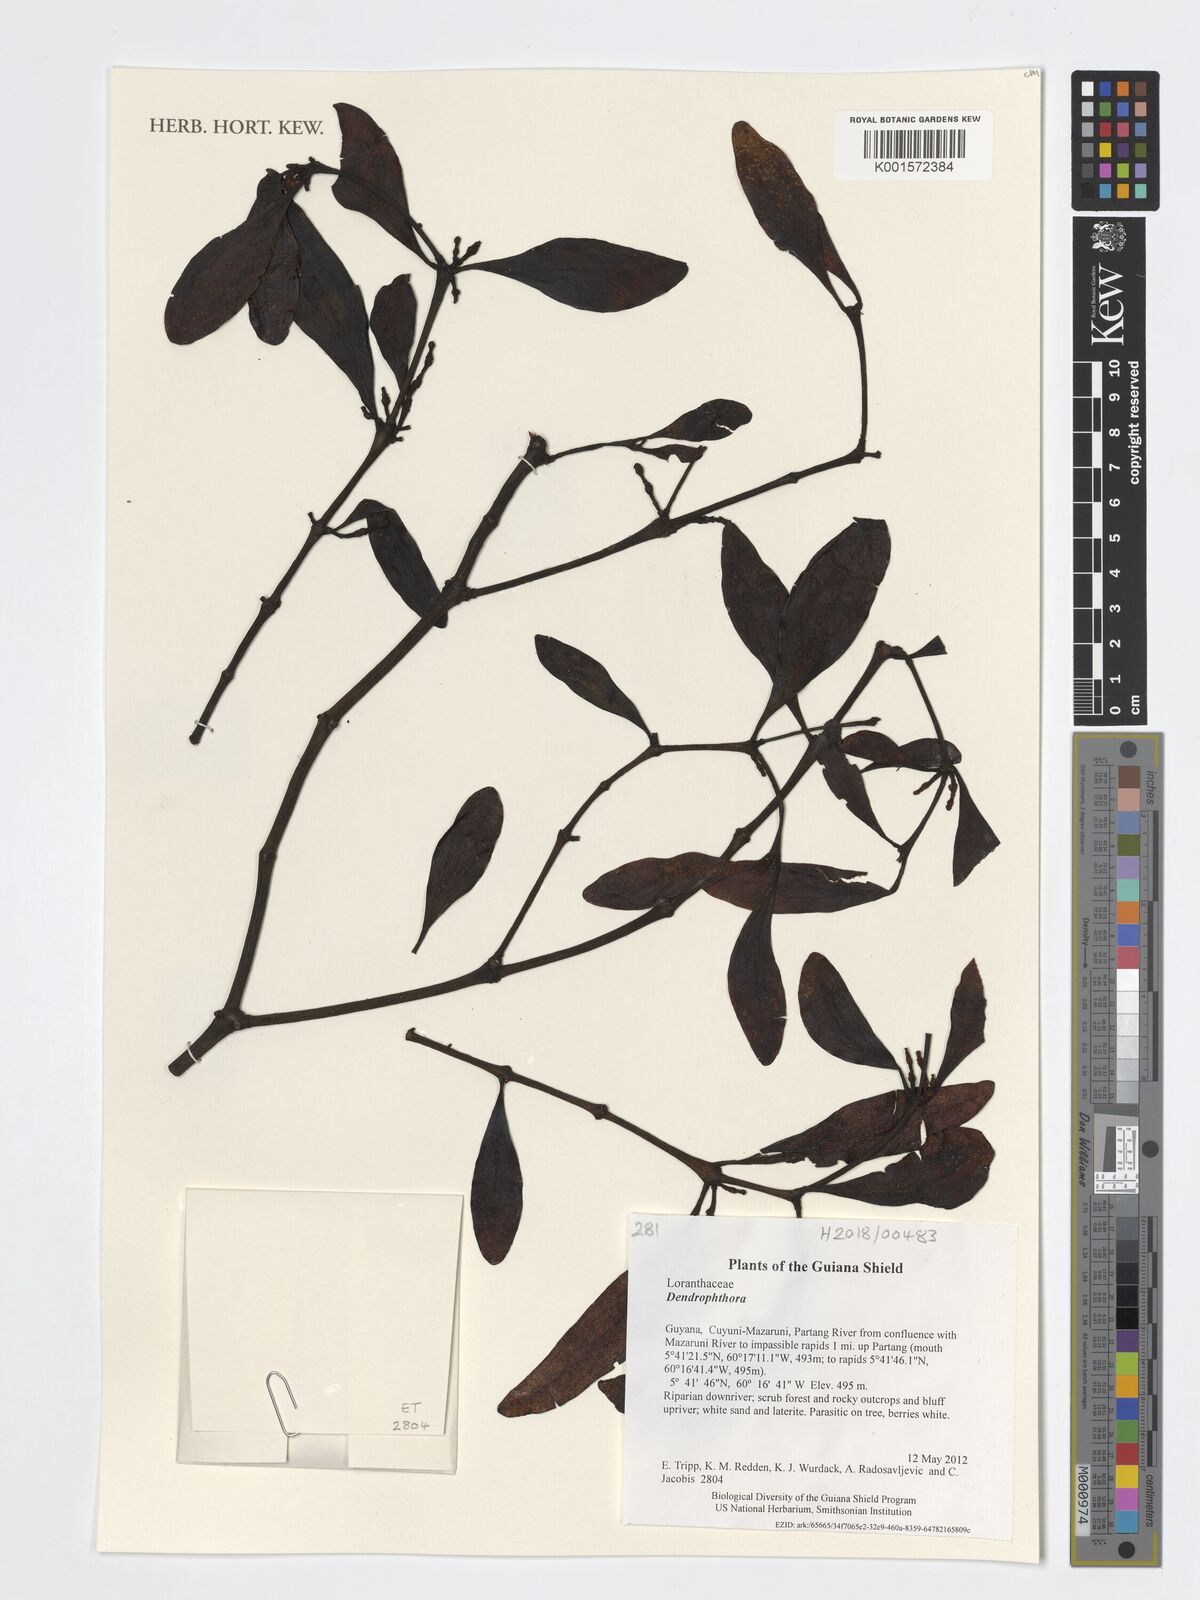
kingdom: Plantae
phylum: Tracheophyta
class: Magnoliopsida
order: Santalales
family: Viscaceae
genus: Dendrophthora
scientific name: Dendrophthora
